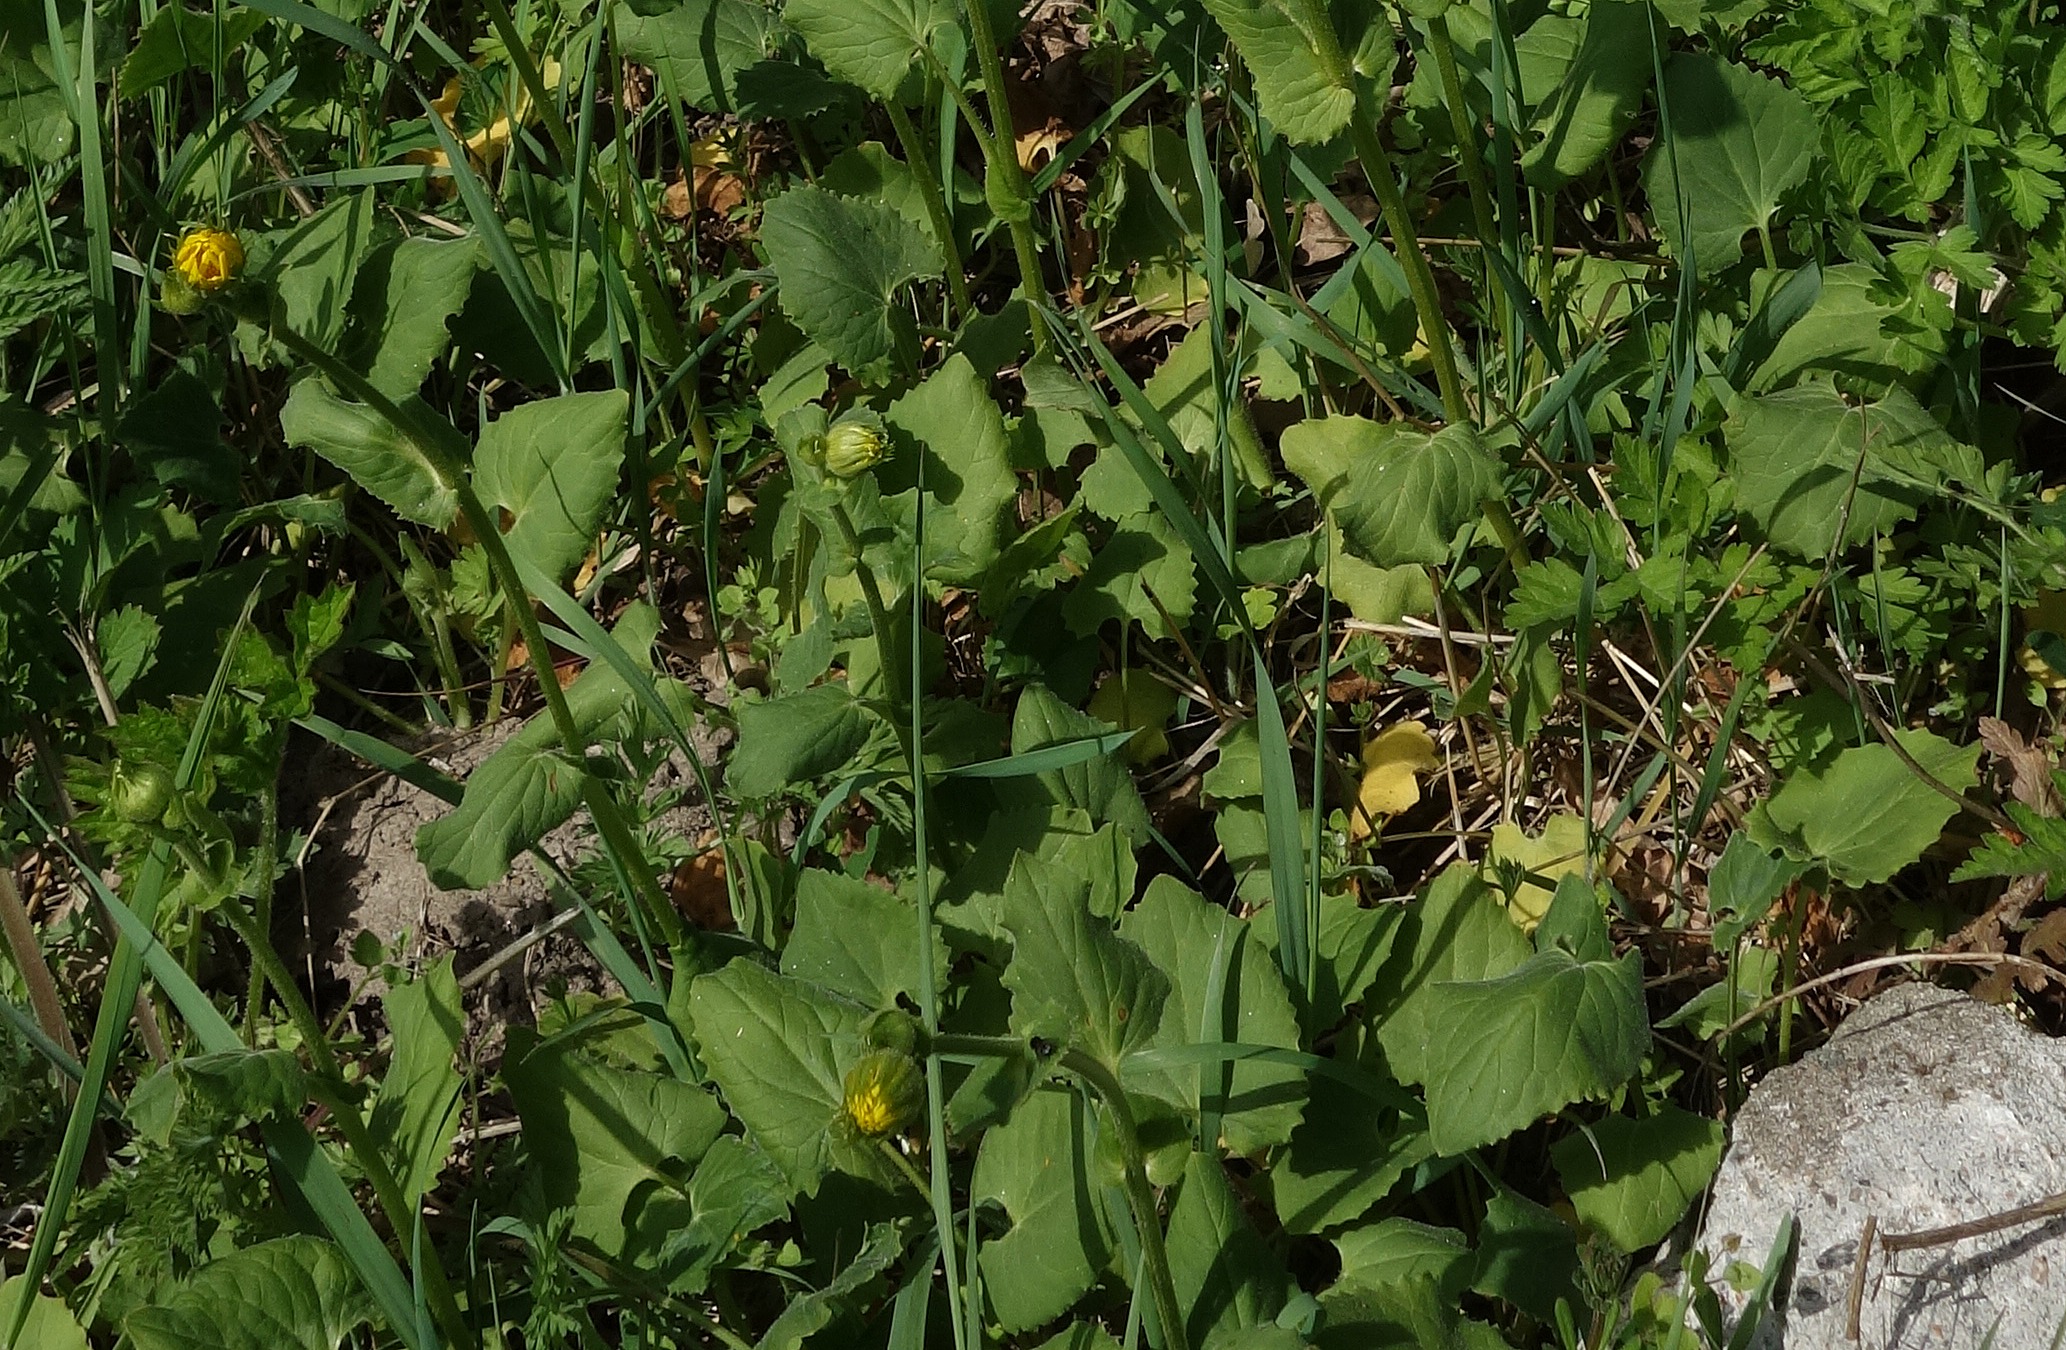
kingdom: Plantae
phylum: Tracheophyta
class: Magnoliopsida
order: Asterales
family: Asteraceae
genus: Doronicum
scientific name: Doronicum pardalianches
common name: Hjertebladet gemserod
